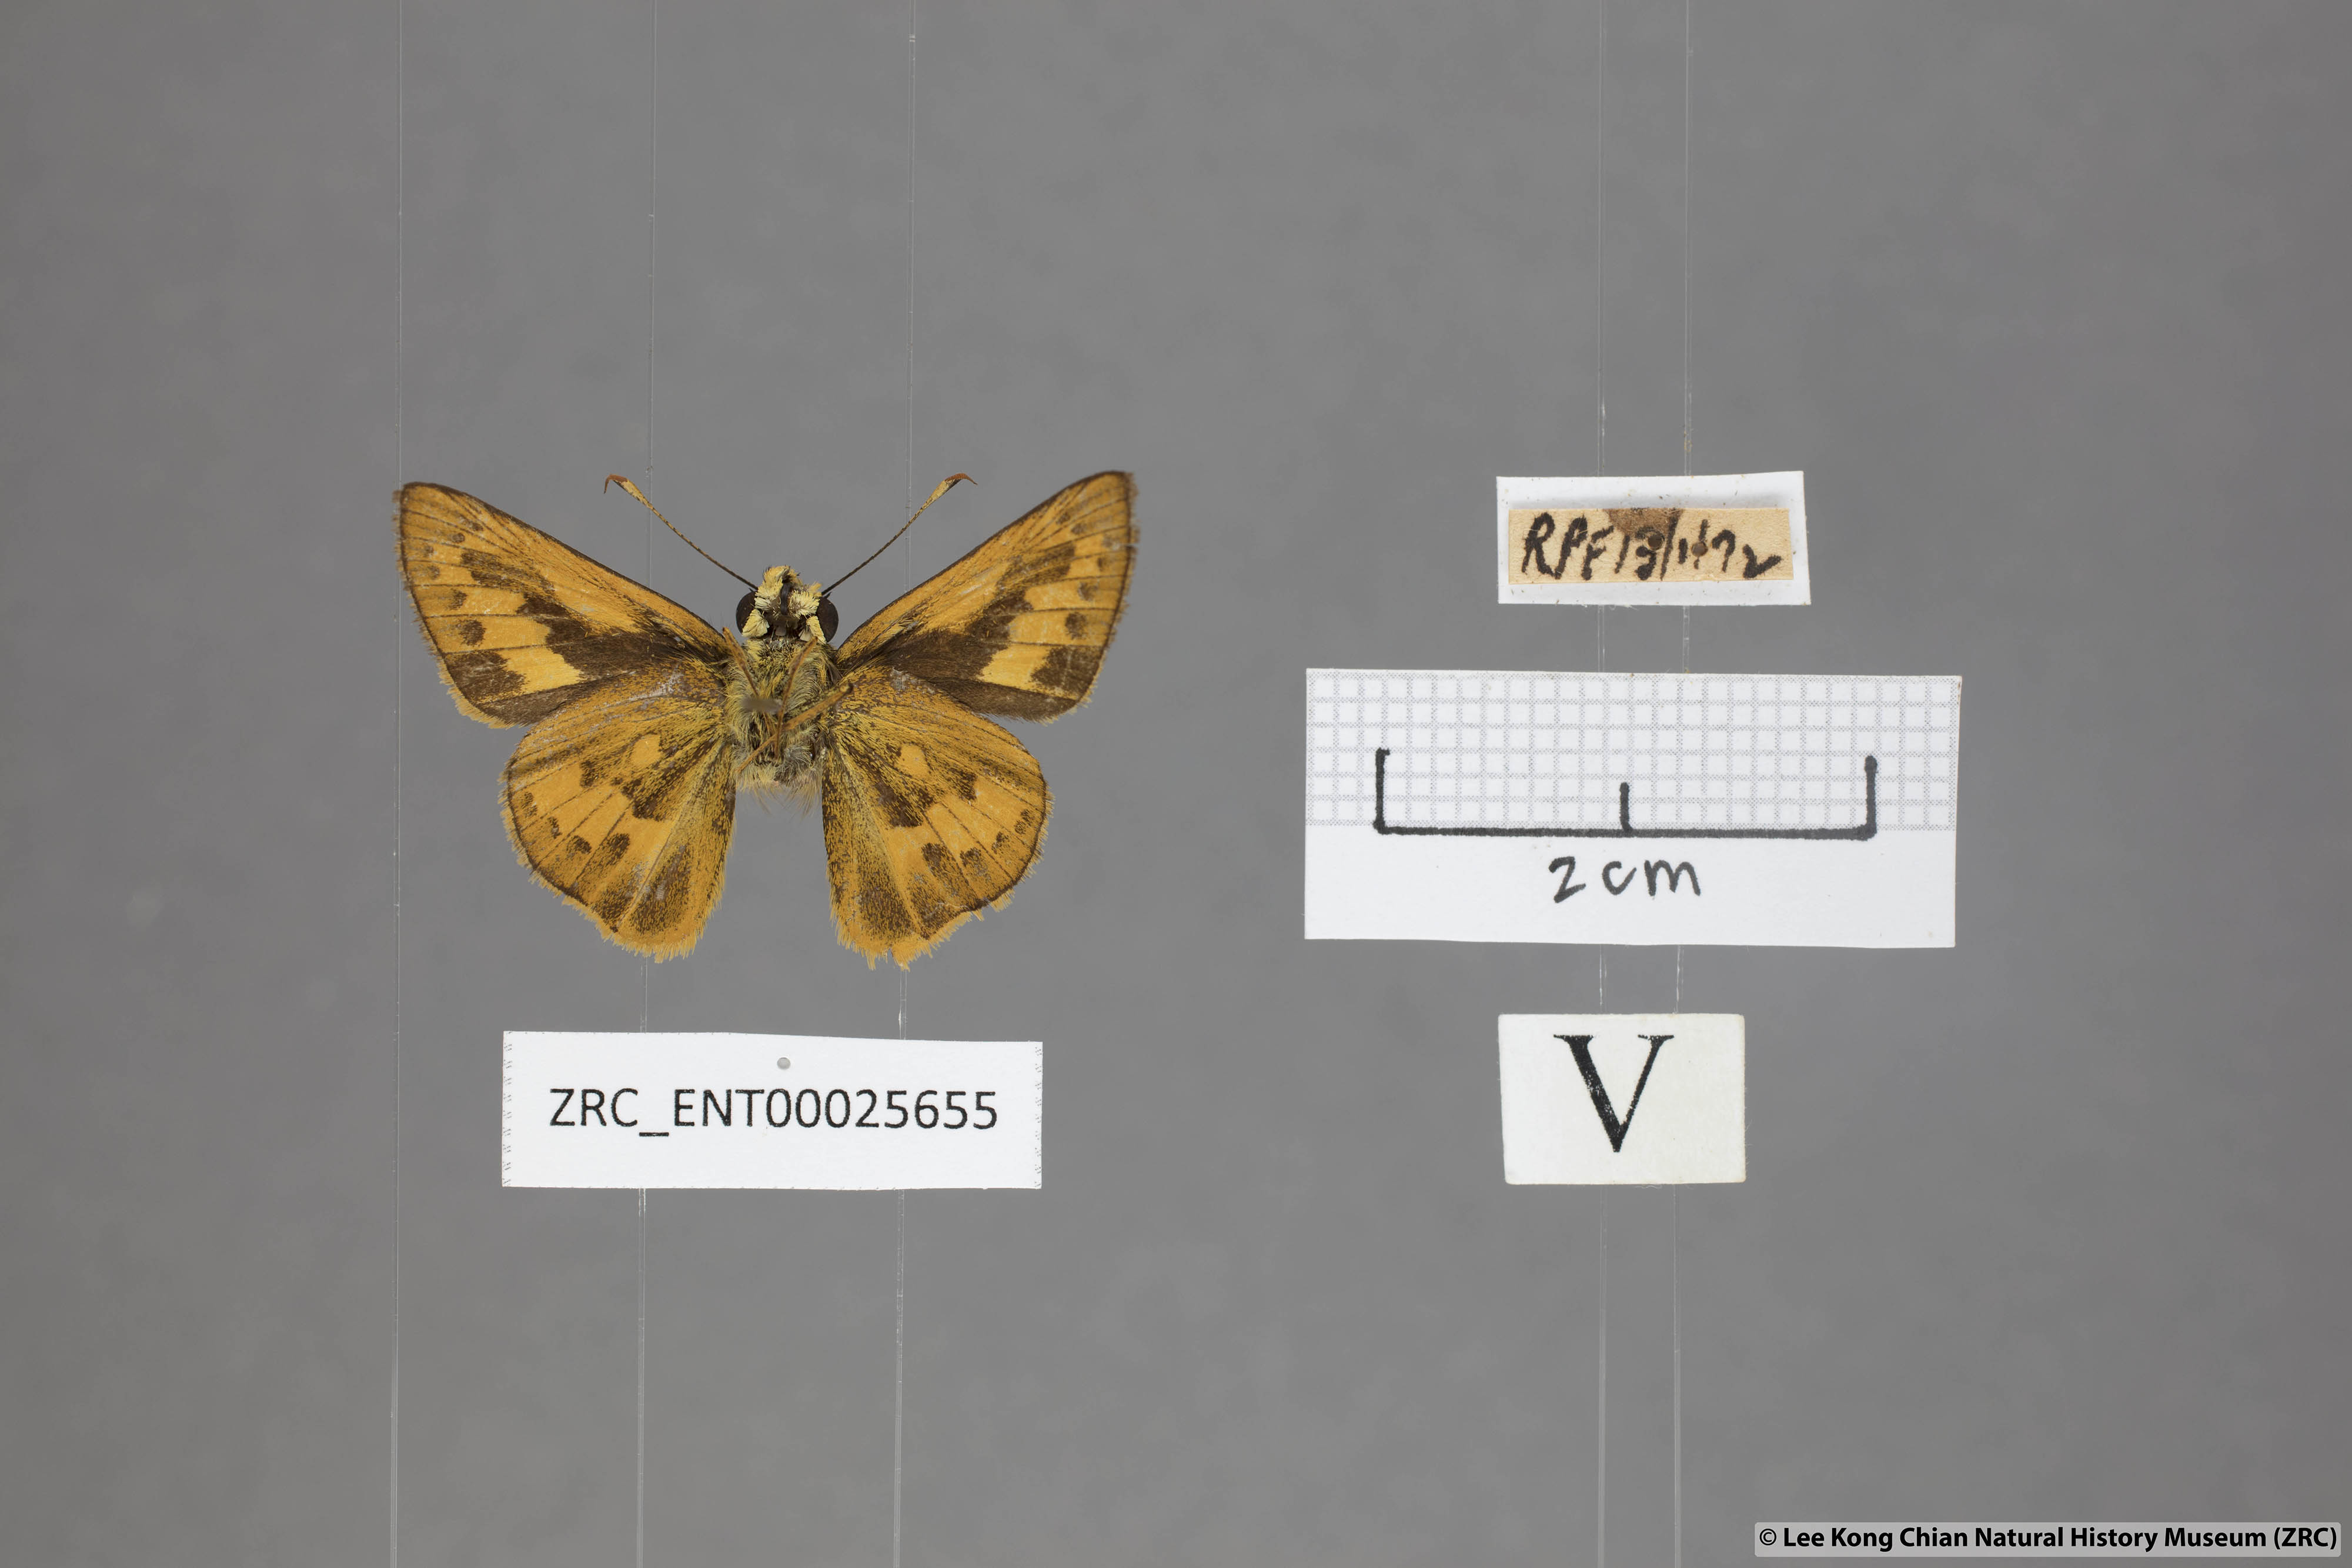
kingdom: Animalia
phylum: Arthropoda
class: Insecta
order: Lepidoptera
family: Hesperiidae
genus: Telicota
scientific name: Telicota colon
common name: Pale palm dart
